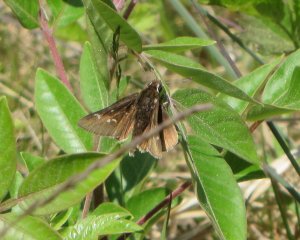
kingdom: Animalia
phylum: Arthropoda
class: Insecta
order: Lepidoptera
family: Hesperiidae
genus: Atrytonopsis
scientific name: Atrytonopsis hianna
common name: Dusted Skipper
